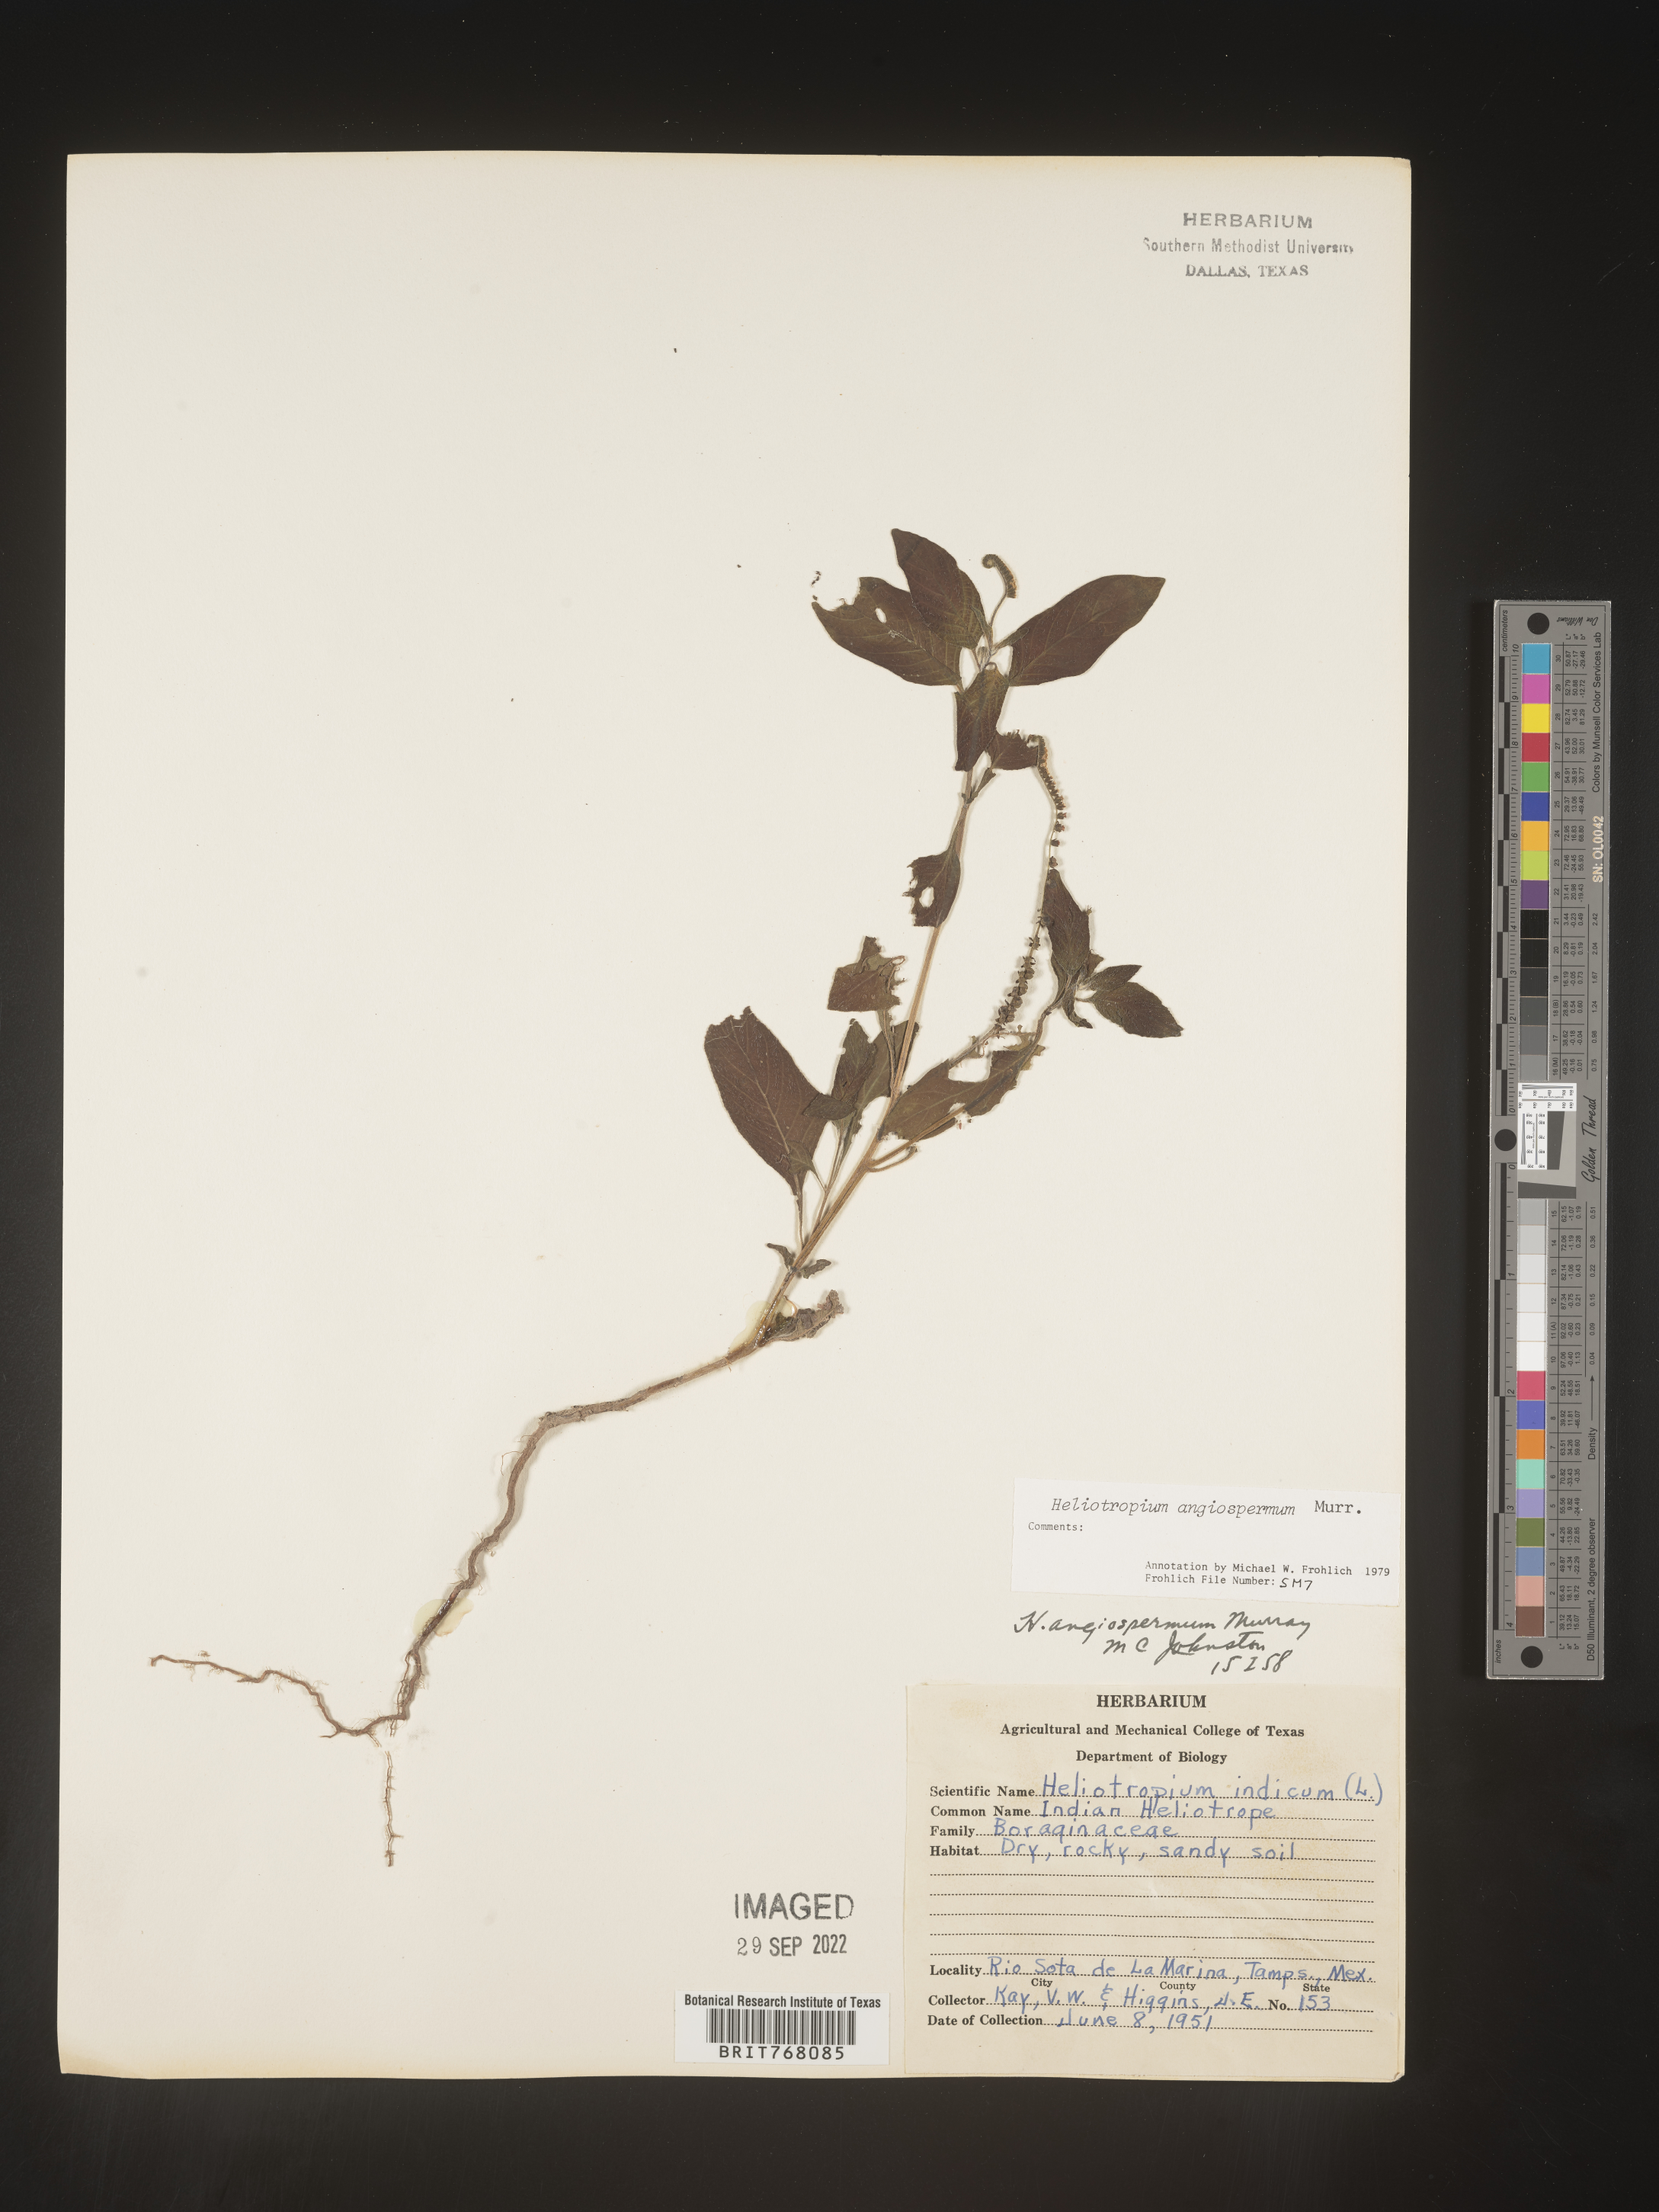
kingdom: Plantae
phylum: Tracheophyta
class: Magnoliopsida
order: Boraginales
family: Heliotropiaceae
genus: Heliotropium
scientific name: Heliotropium
